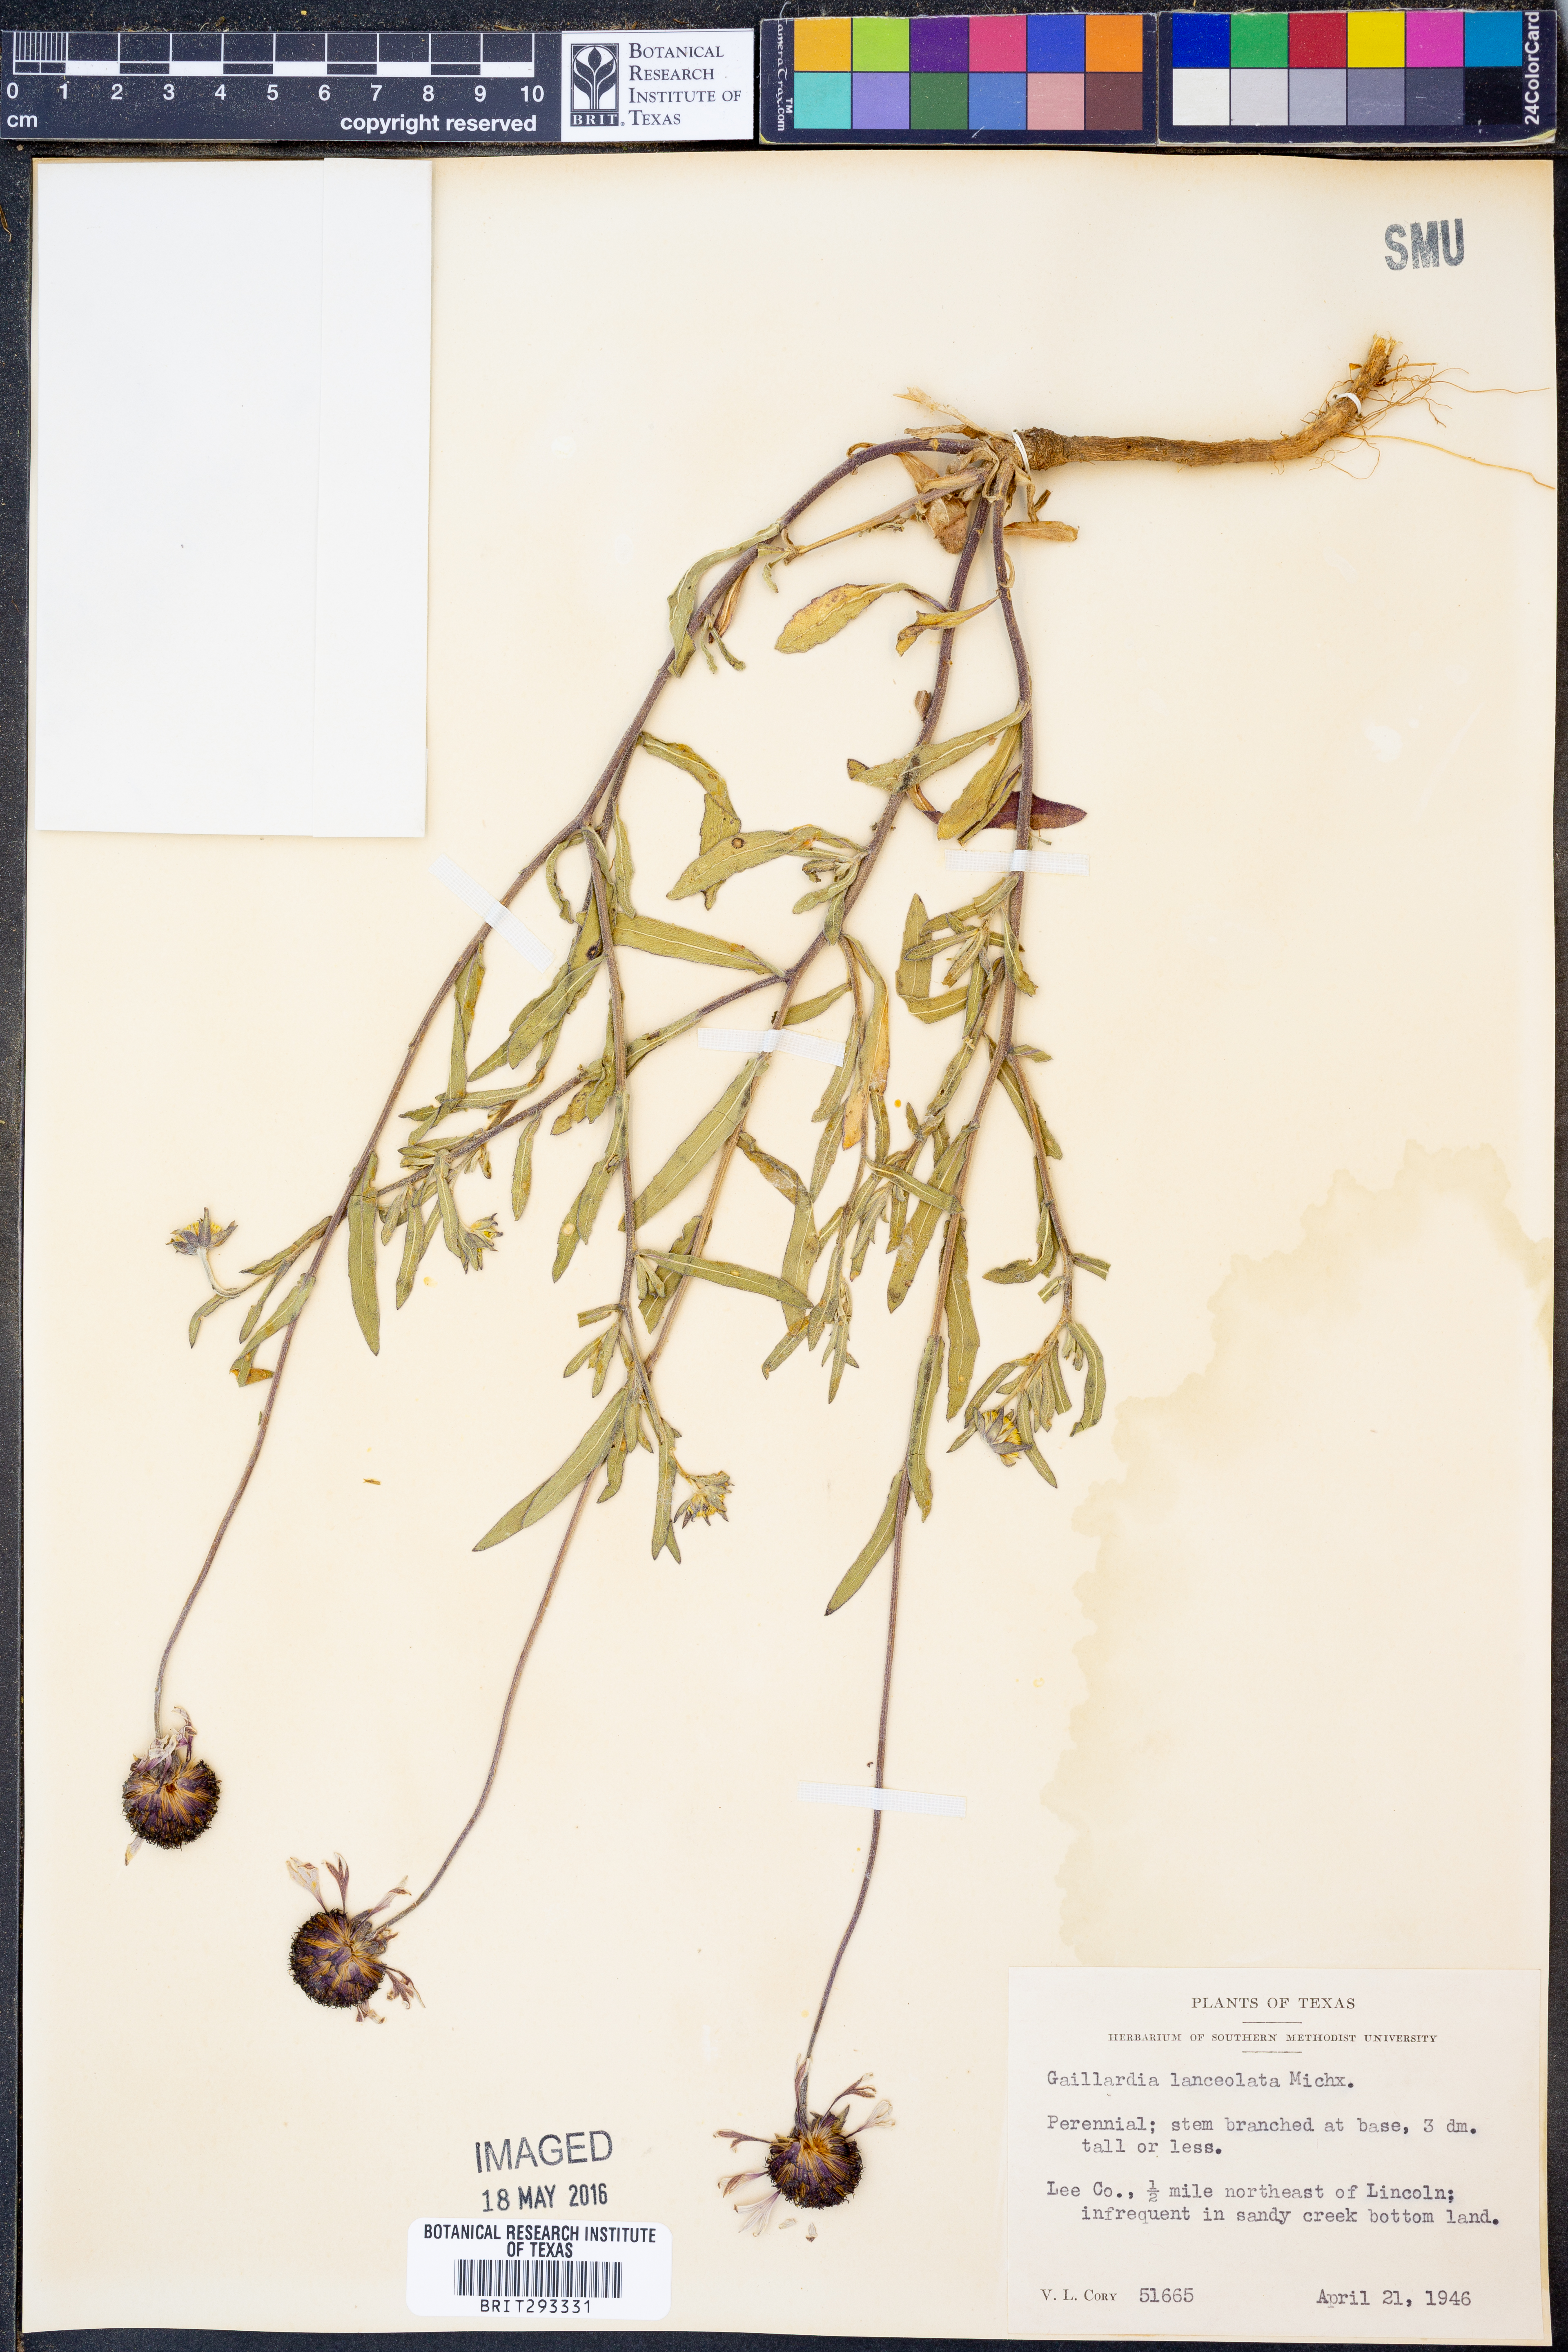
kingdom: Plantae
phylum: Tracheophyta
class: Magnoliopsida
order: Asterales
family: Asteraceae
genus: Gaillardia
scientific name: Gaillardia aestivalis
